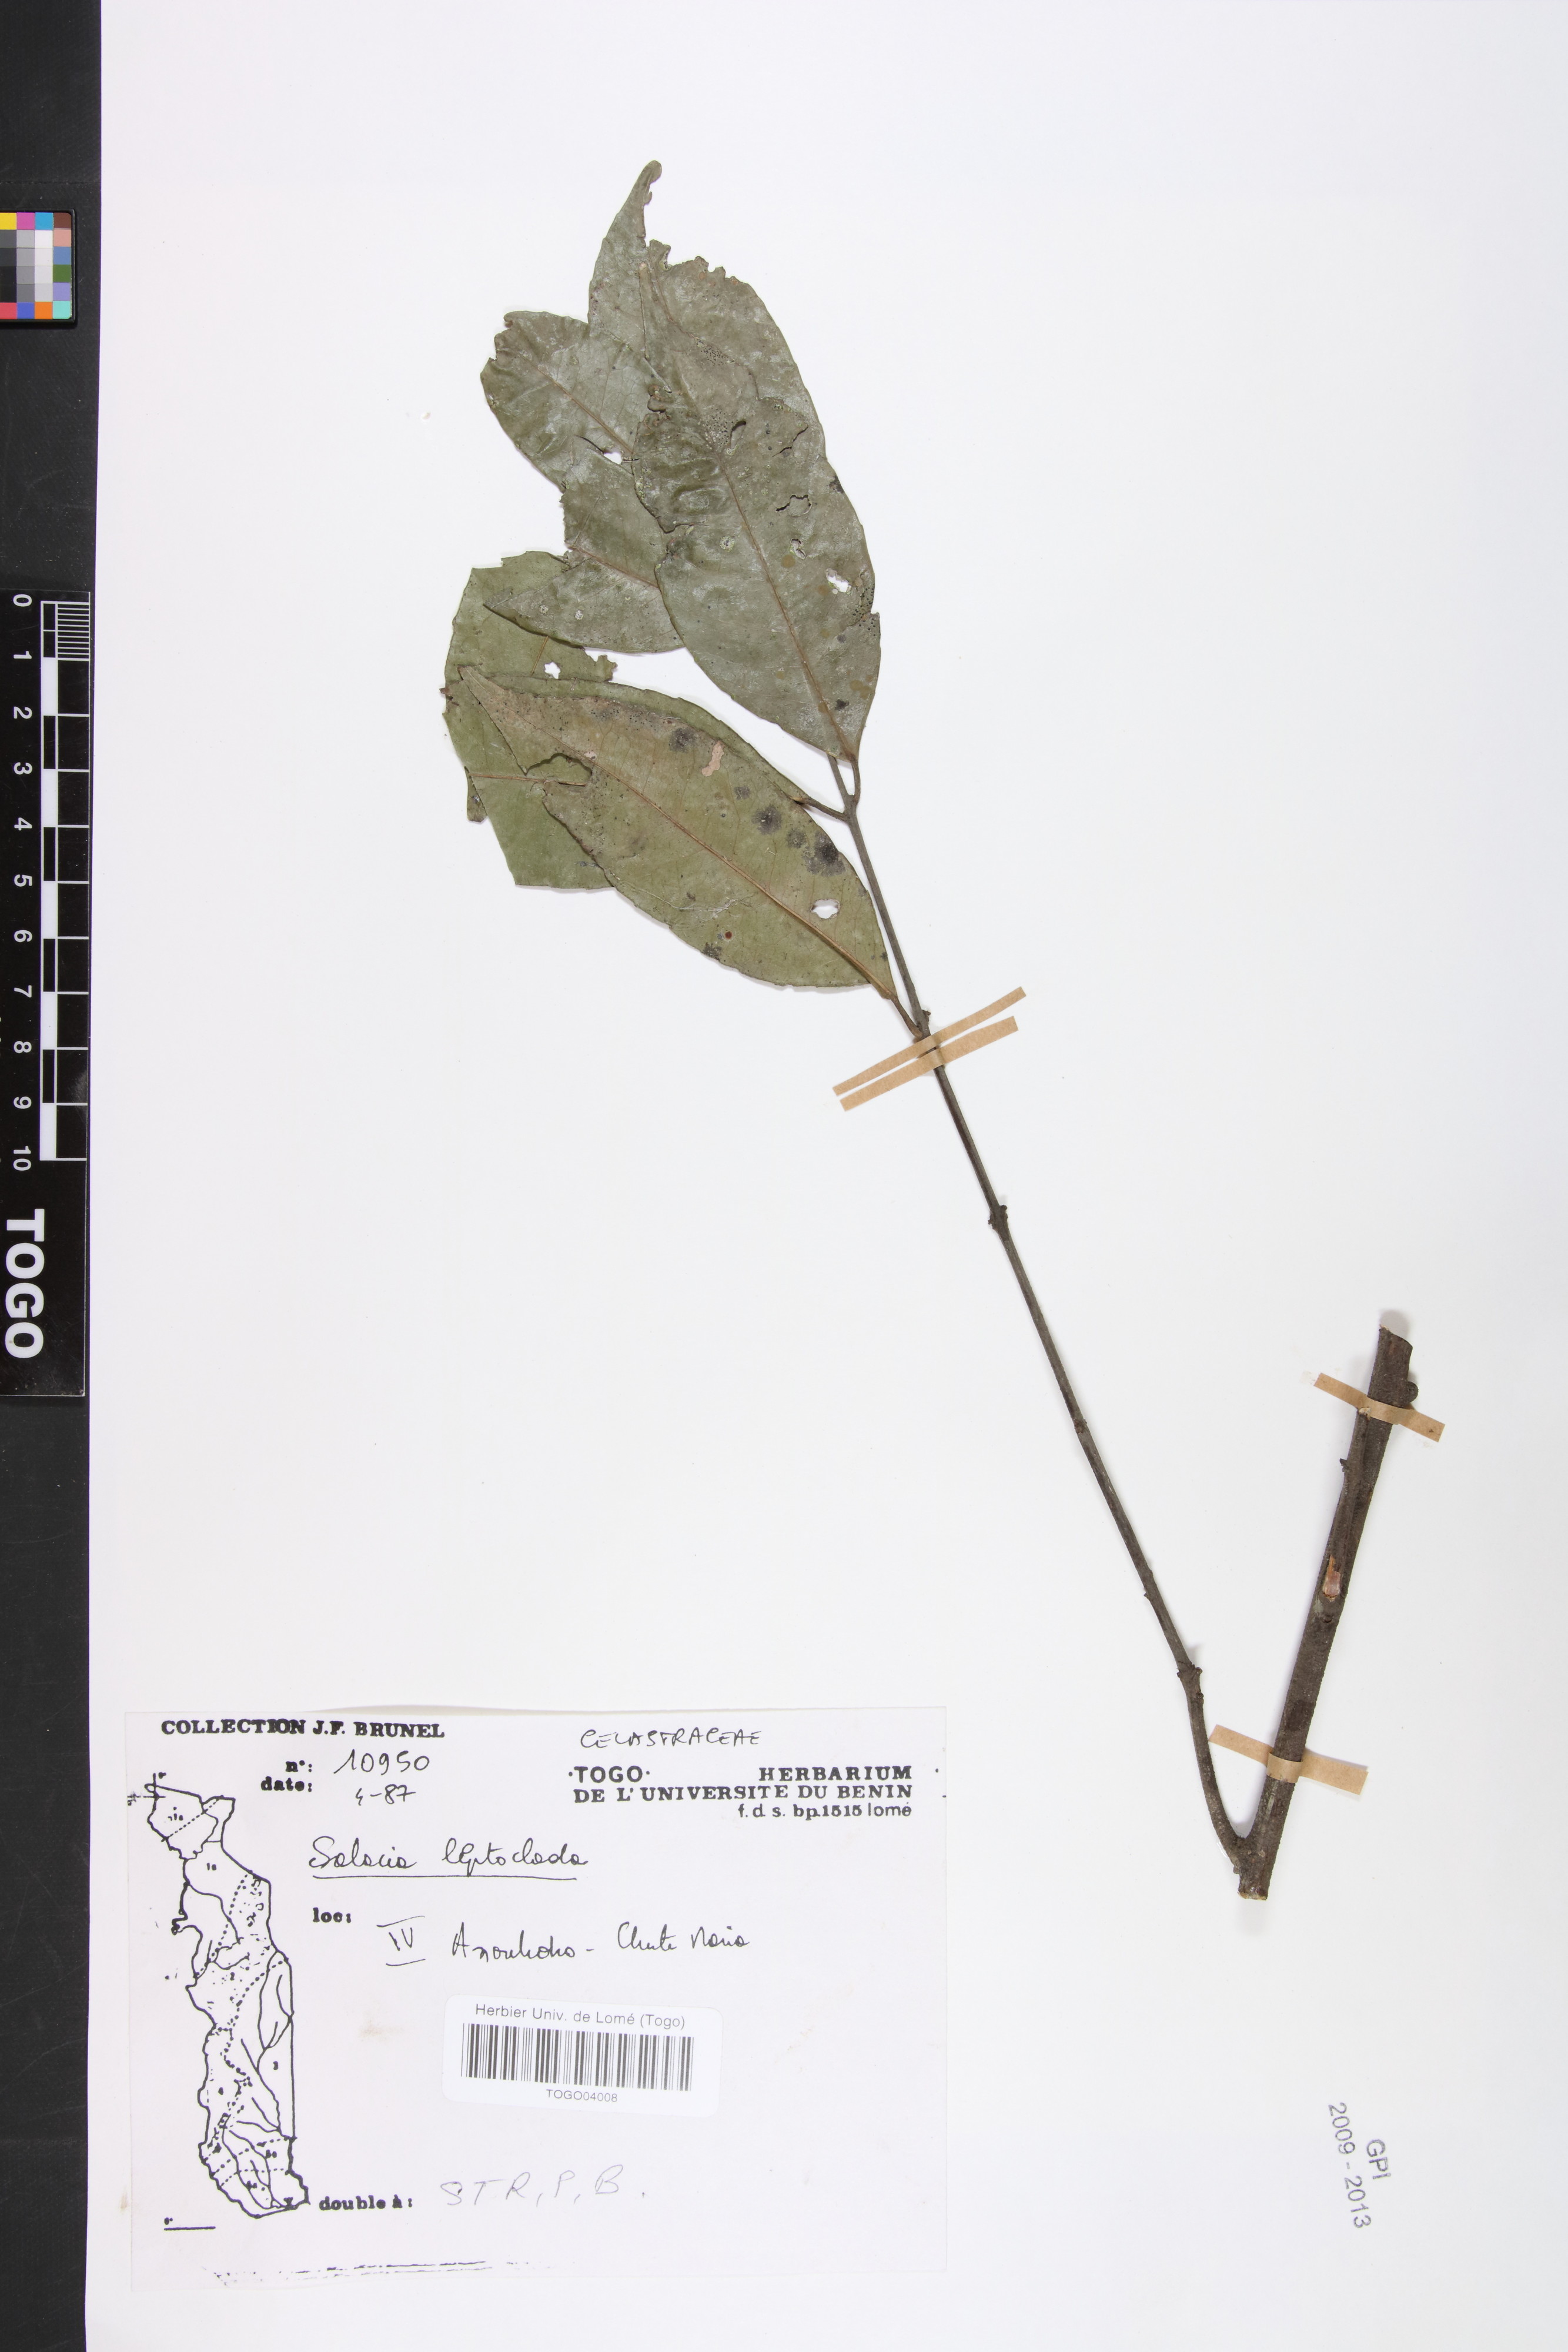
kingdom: Plantae
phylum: Tracheophyta
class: Magnoliopsida
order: Celastrales
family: Celastraceae
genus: Salacia
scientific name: Salacia leptoclada
